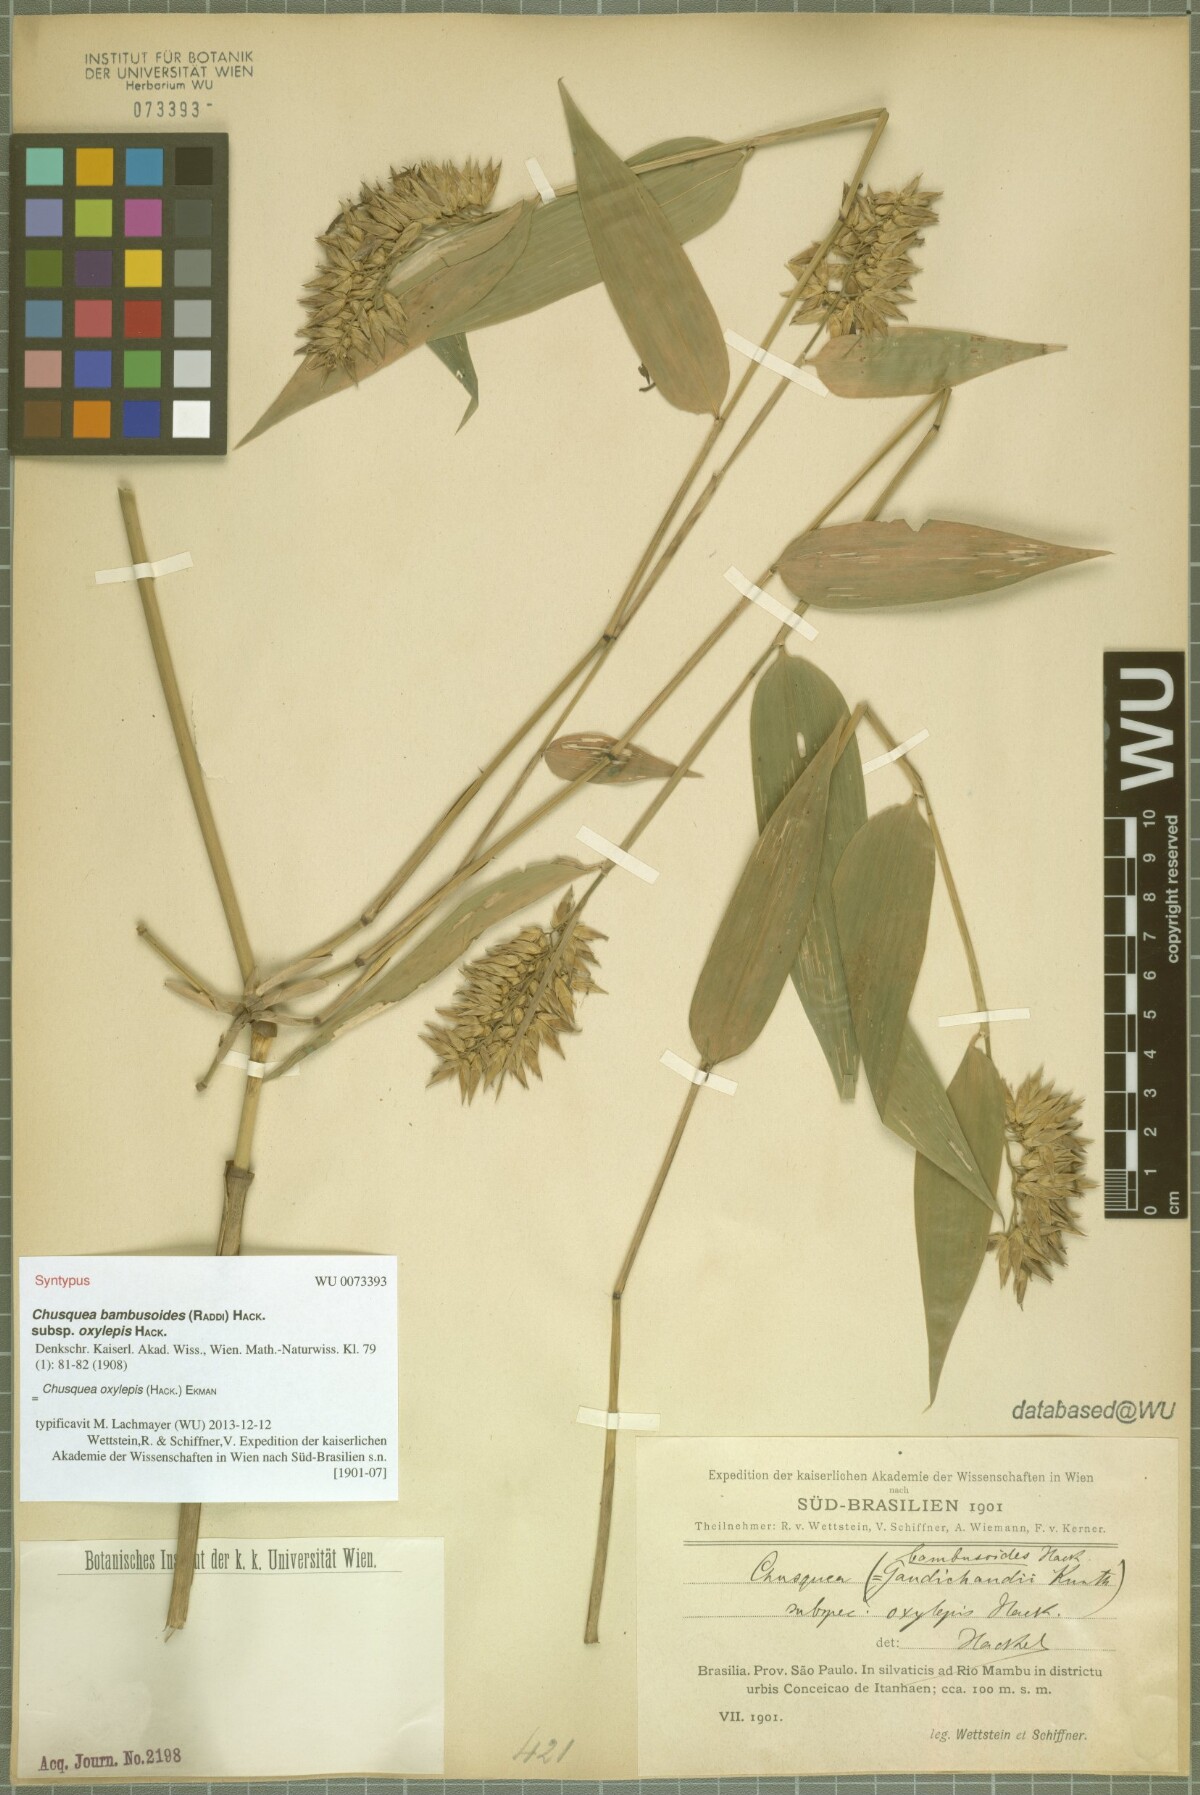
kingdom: Plantae
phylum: Tracheophyta
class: Liliopsida
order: Poales
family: Poaceae
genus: Chusquea
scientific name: Chusquea oxylepis
